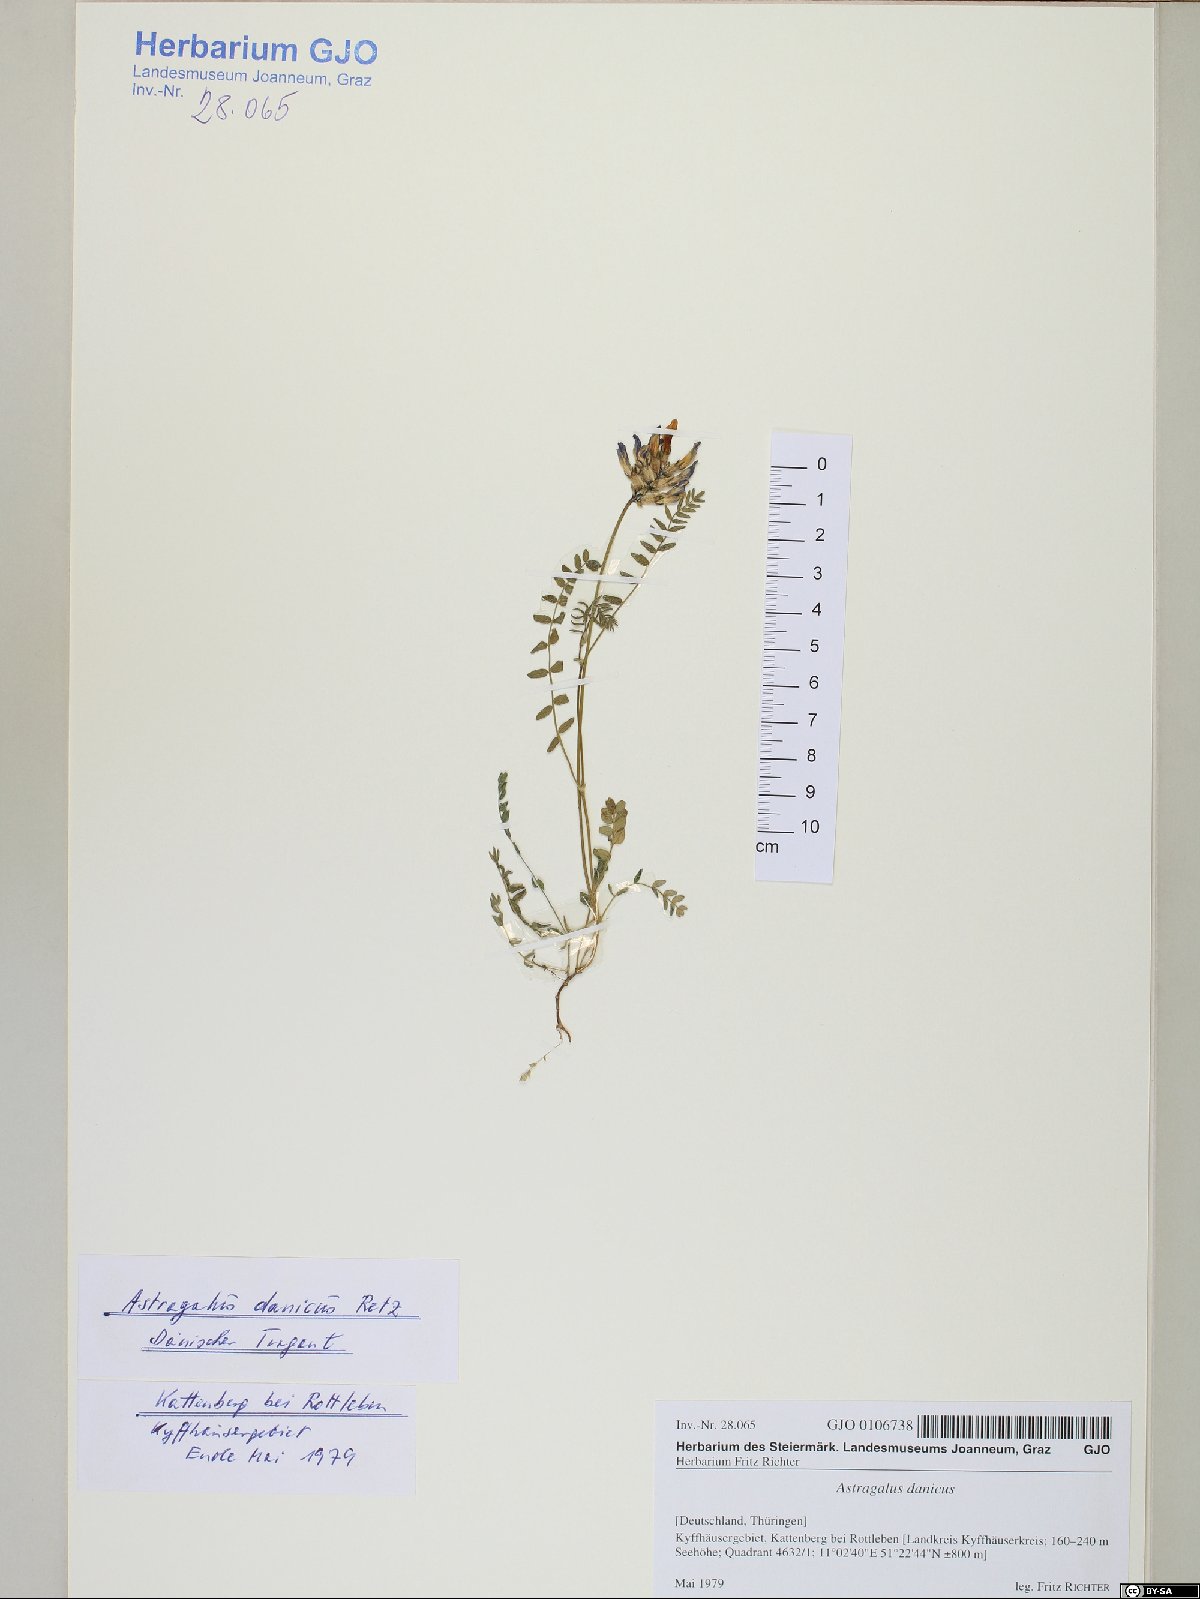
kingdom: Plantae
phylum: Tracheophyta
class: Magnoliopsida
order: Fabales
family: Fabaceae
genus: Astragalus
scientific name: Astragalus danicus
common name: Purple milk-vetch
